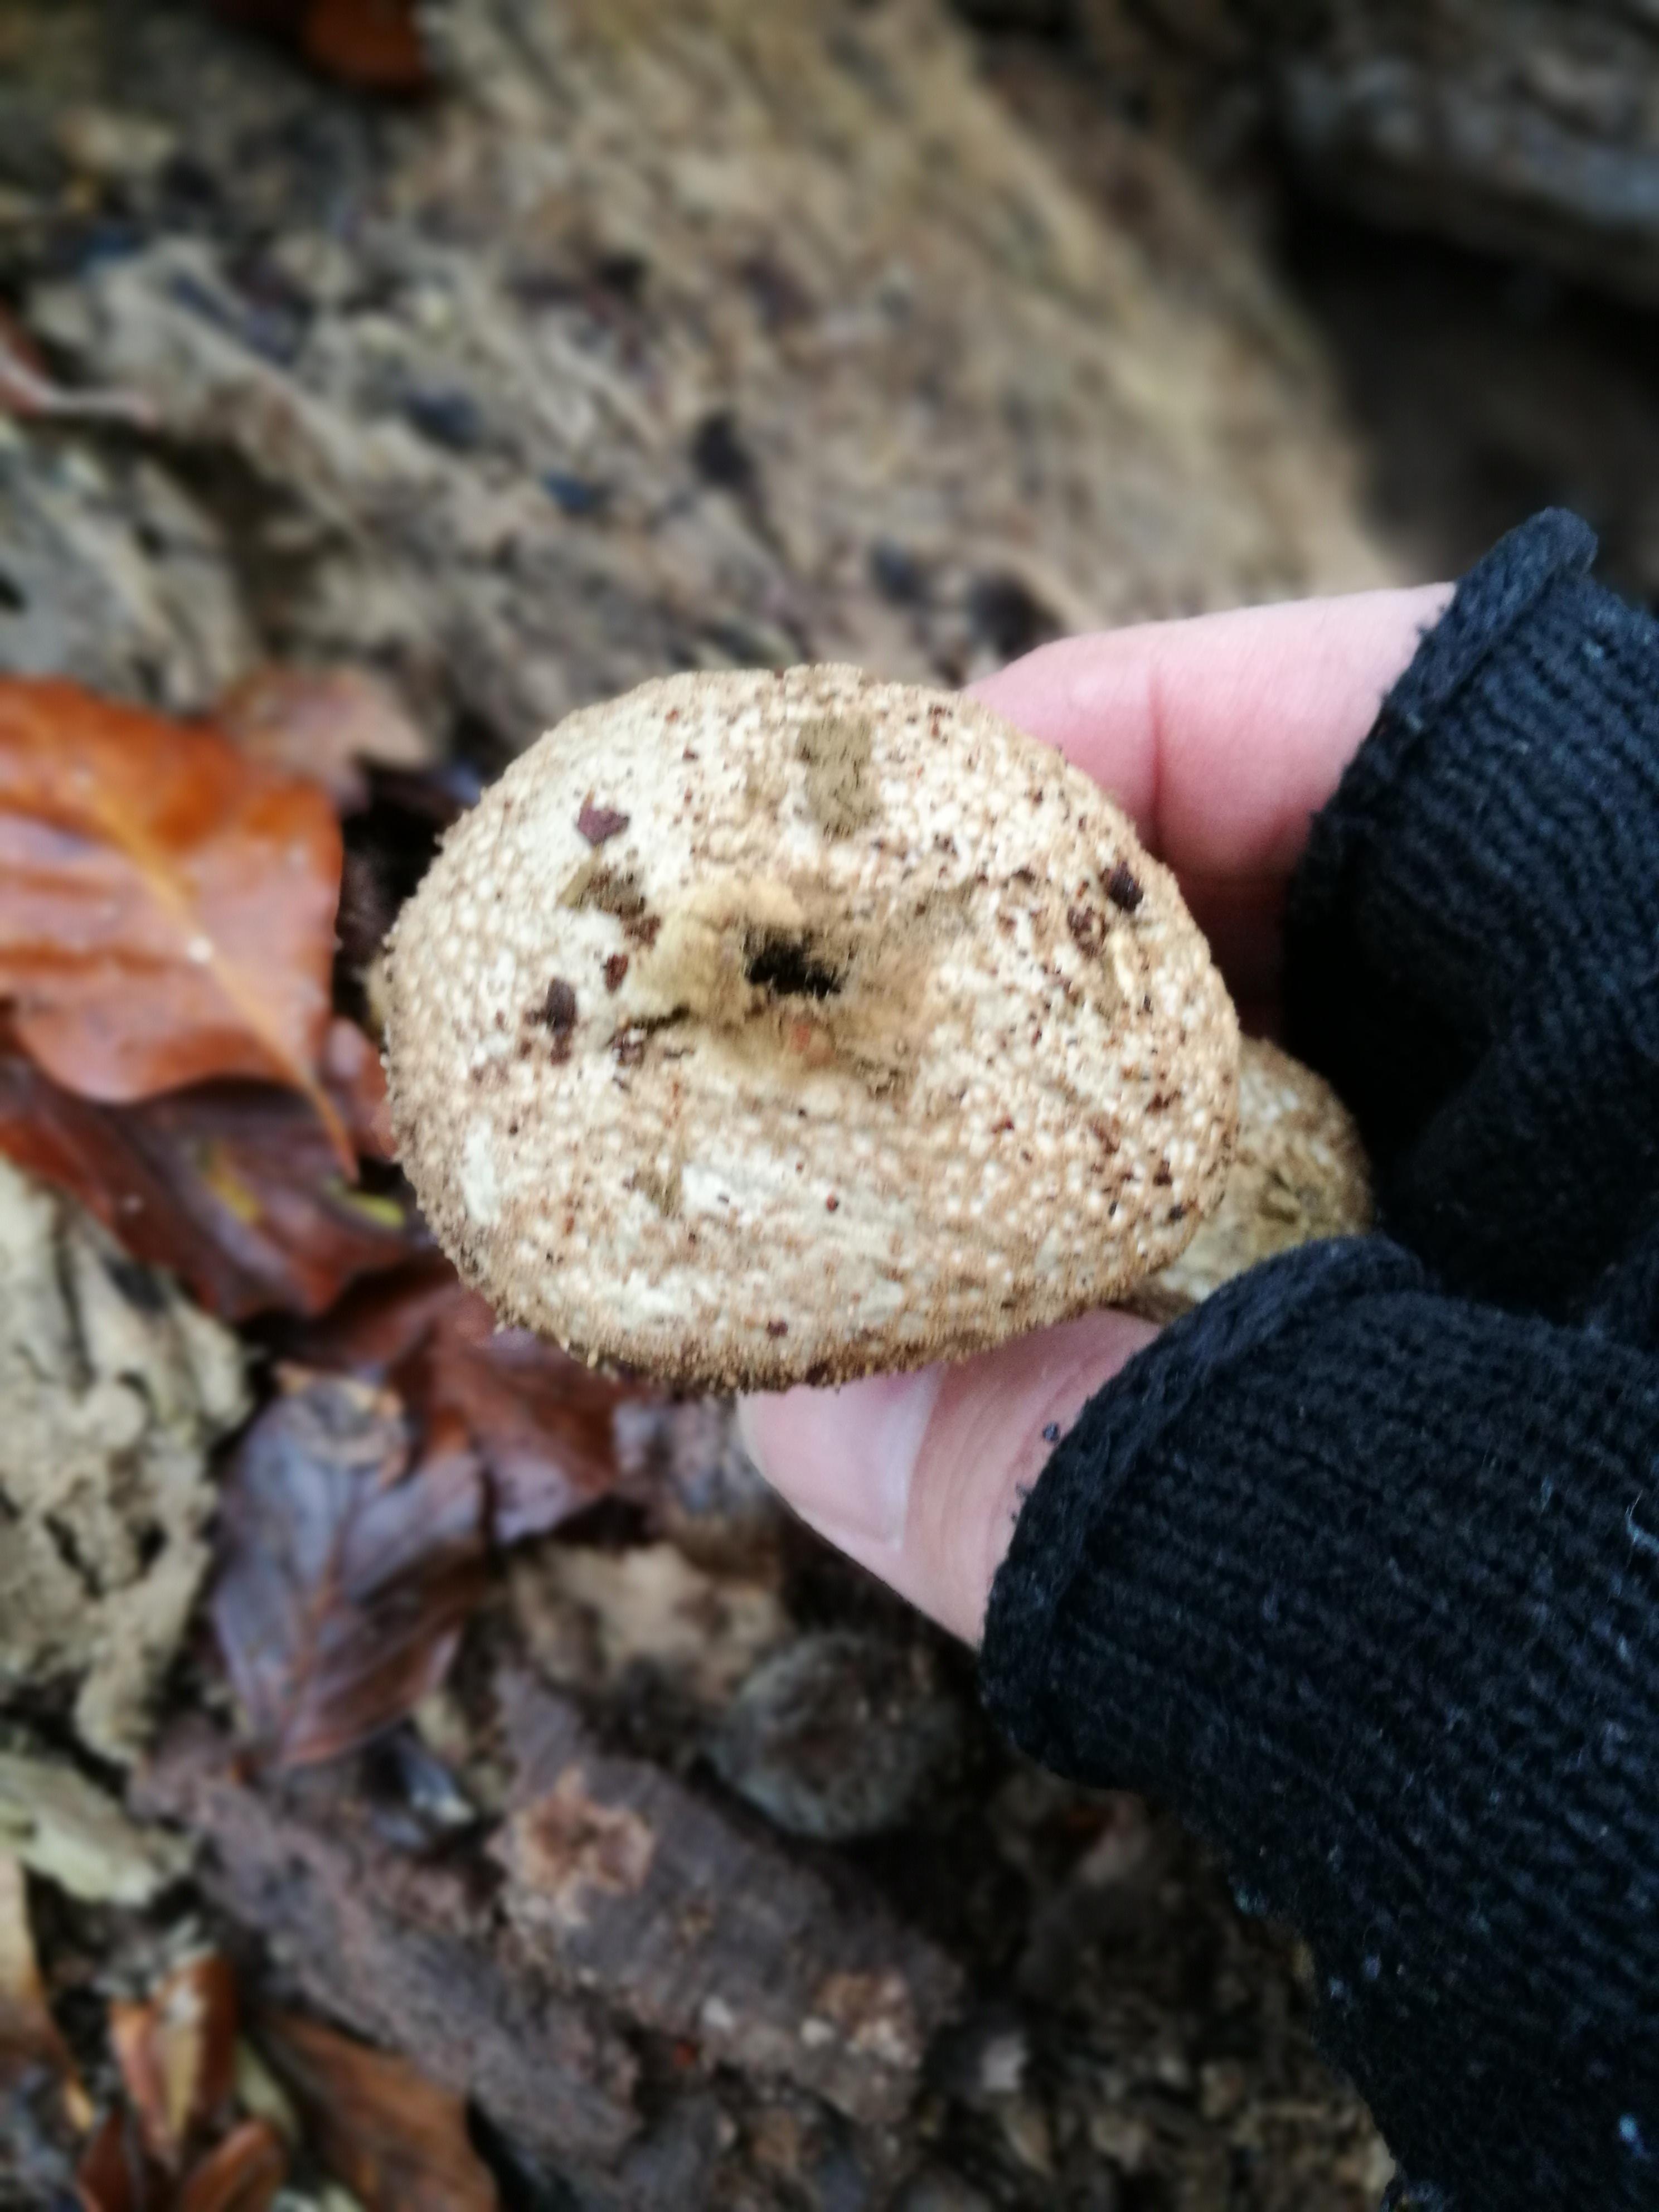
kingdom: Fungi
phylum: Basidiomycota
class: Agaricomycetes
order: Agaricales
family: Lycoperdaceae
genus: Lycoperdon
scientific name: Lycoperdon perlatum
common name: krystal-støvbold
